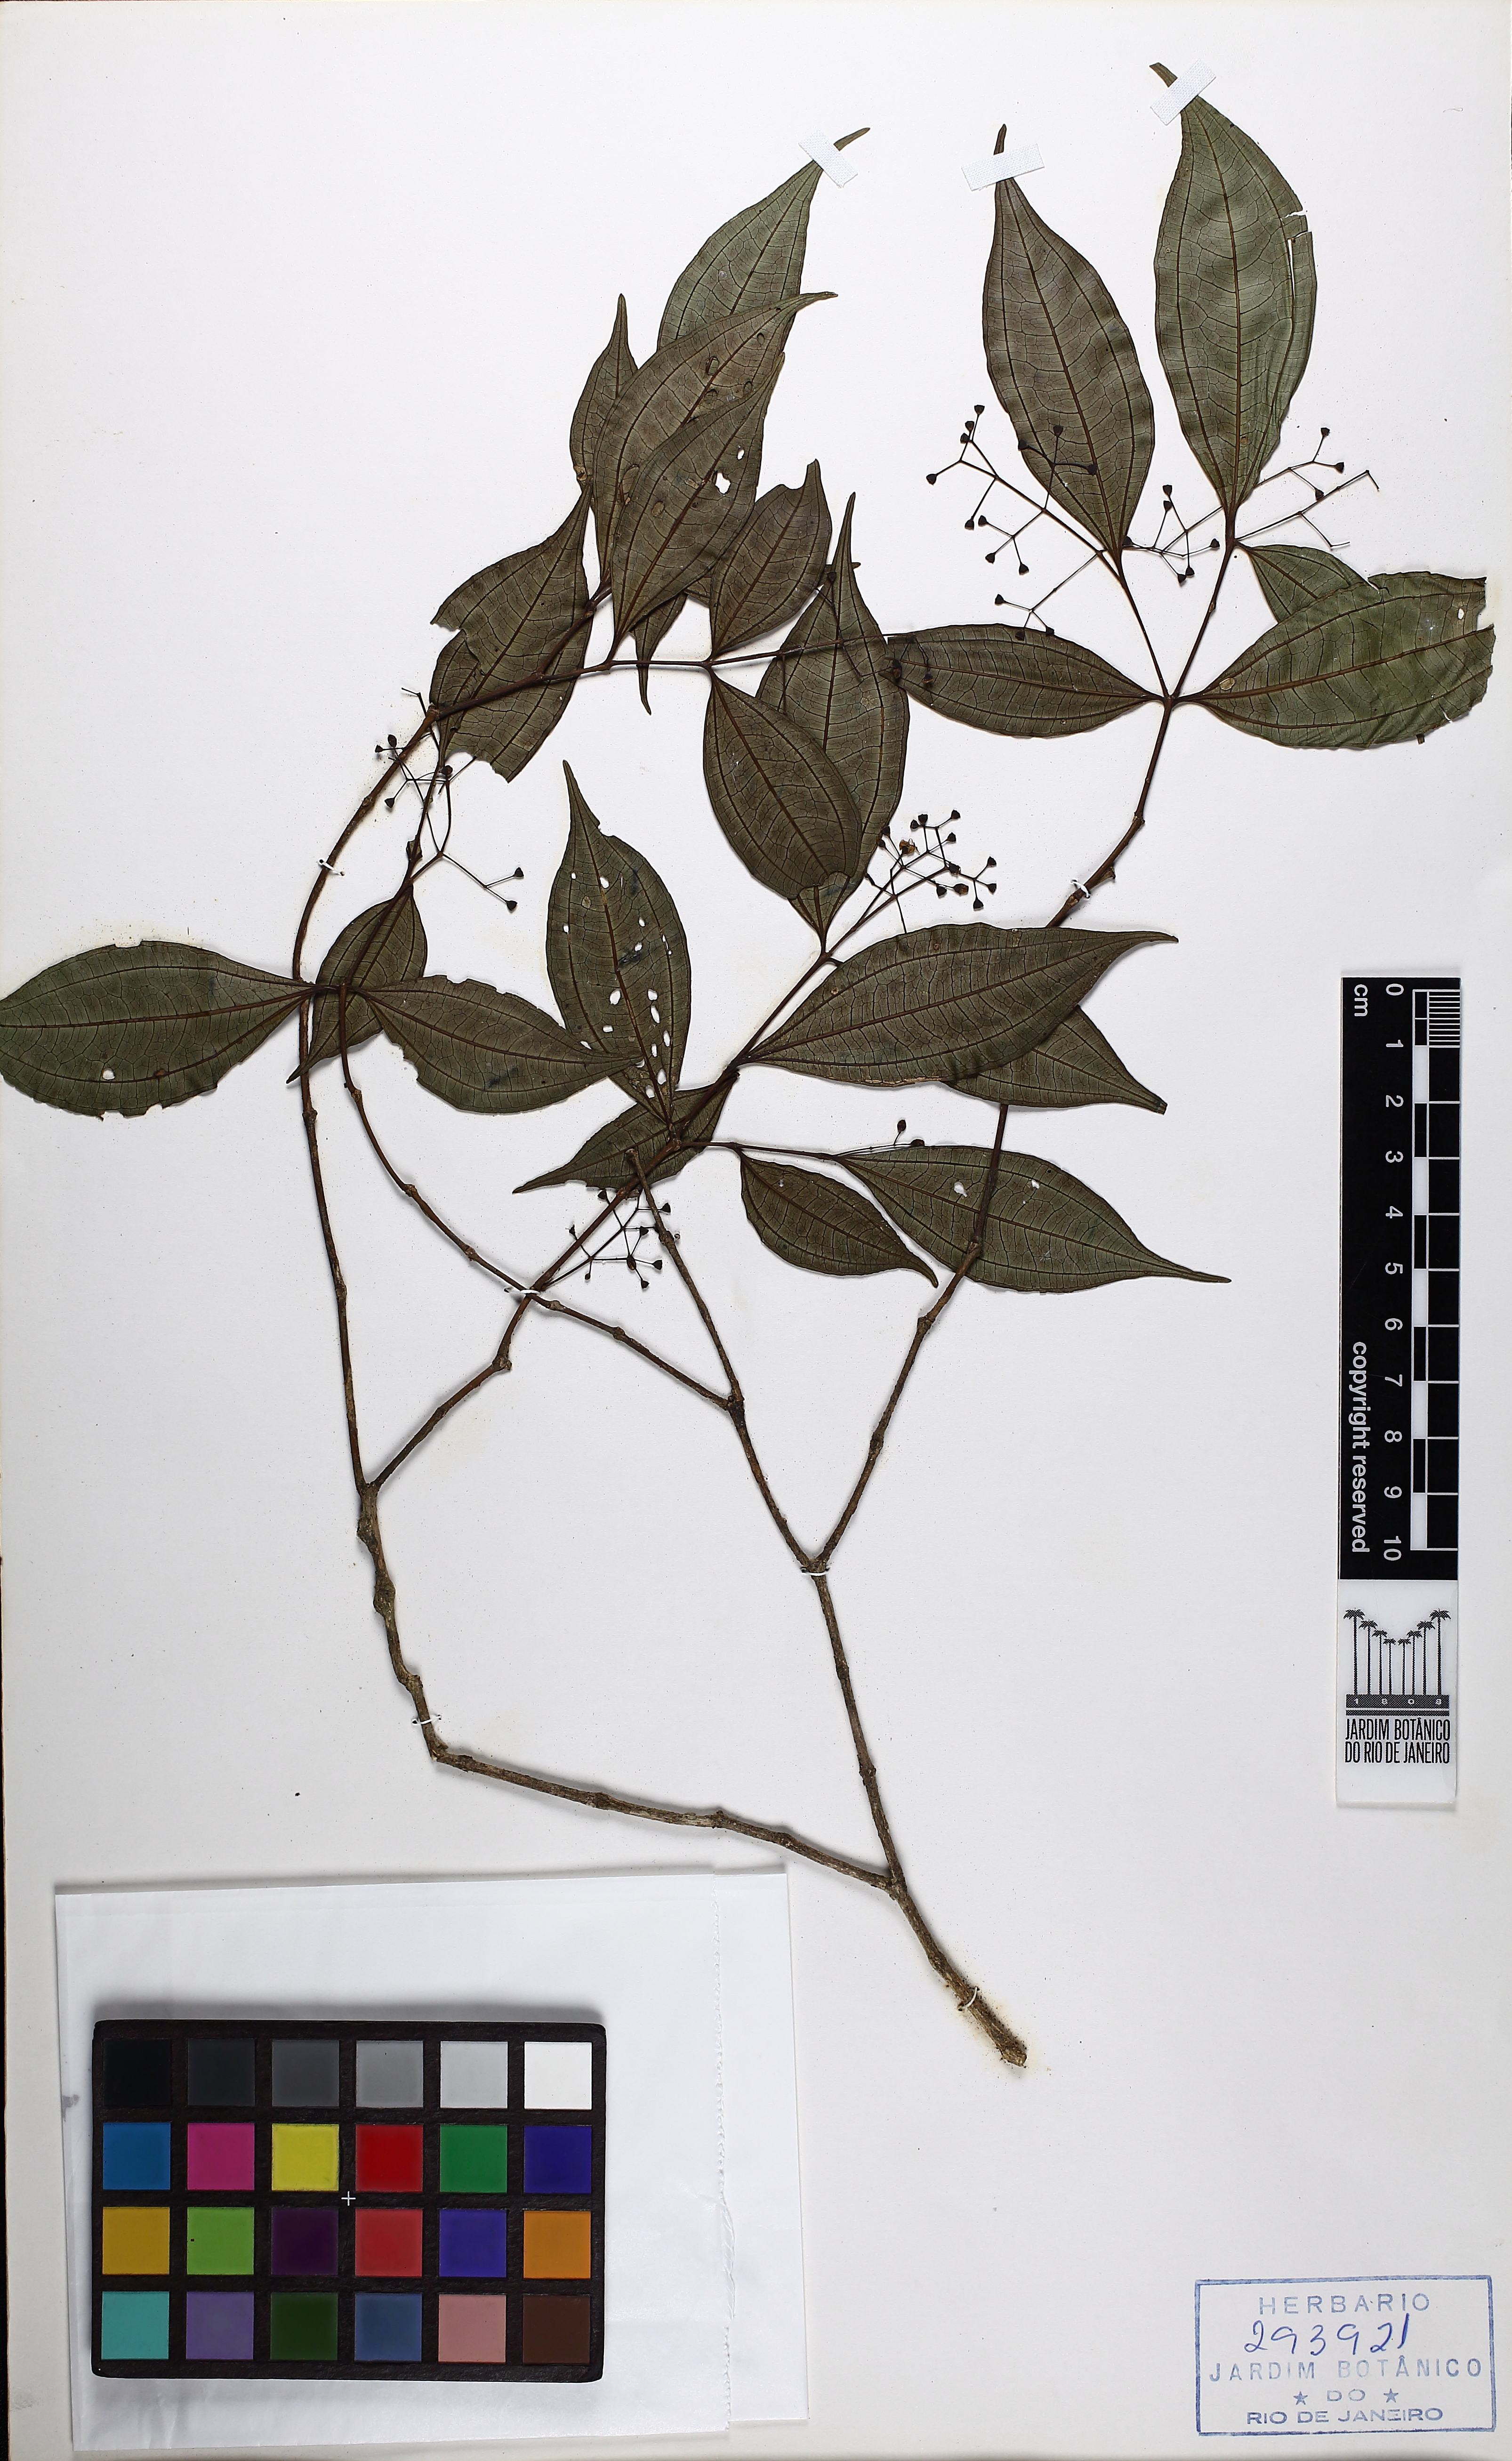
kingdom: Plantae
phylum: Tracheophyta
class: Magnoliopsida
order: Myrtales
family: Melastomataceae
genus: Miconia
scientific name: Miconia tristis
